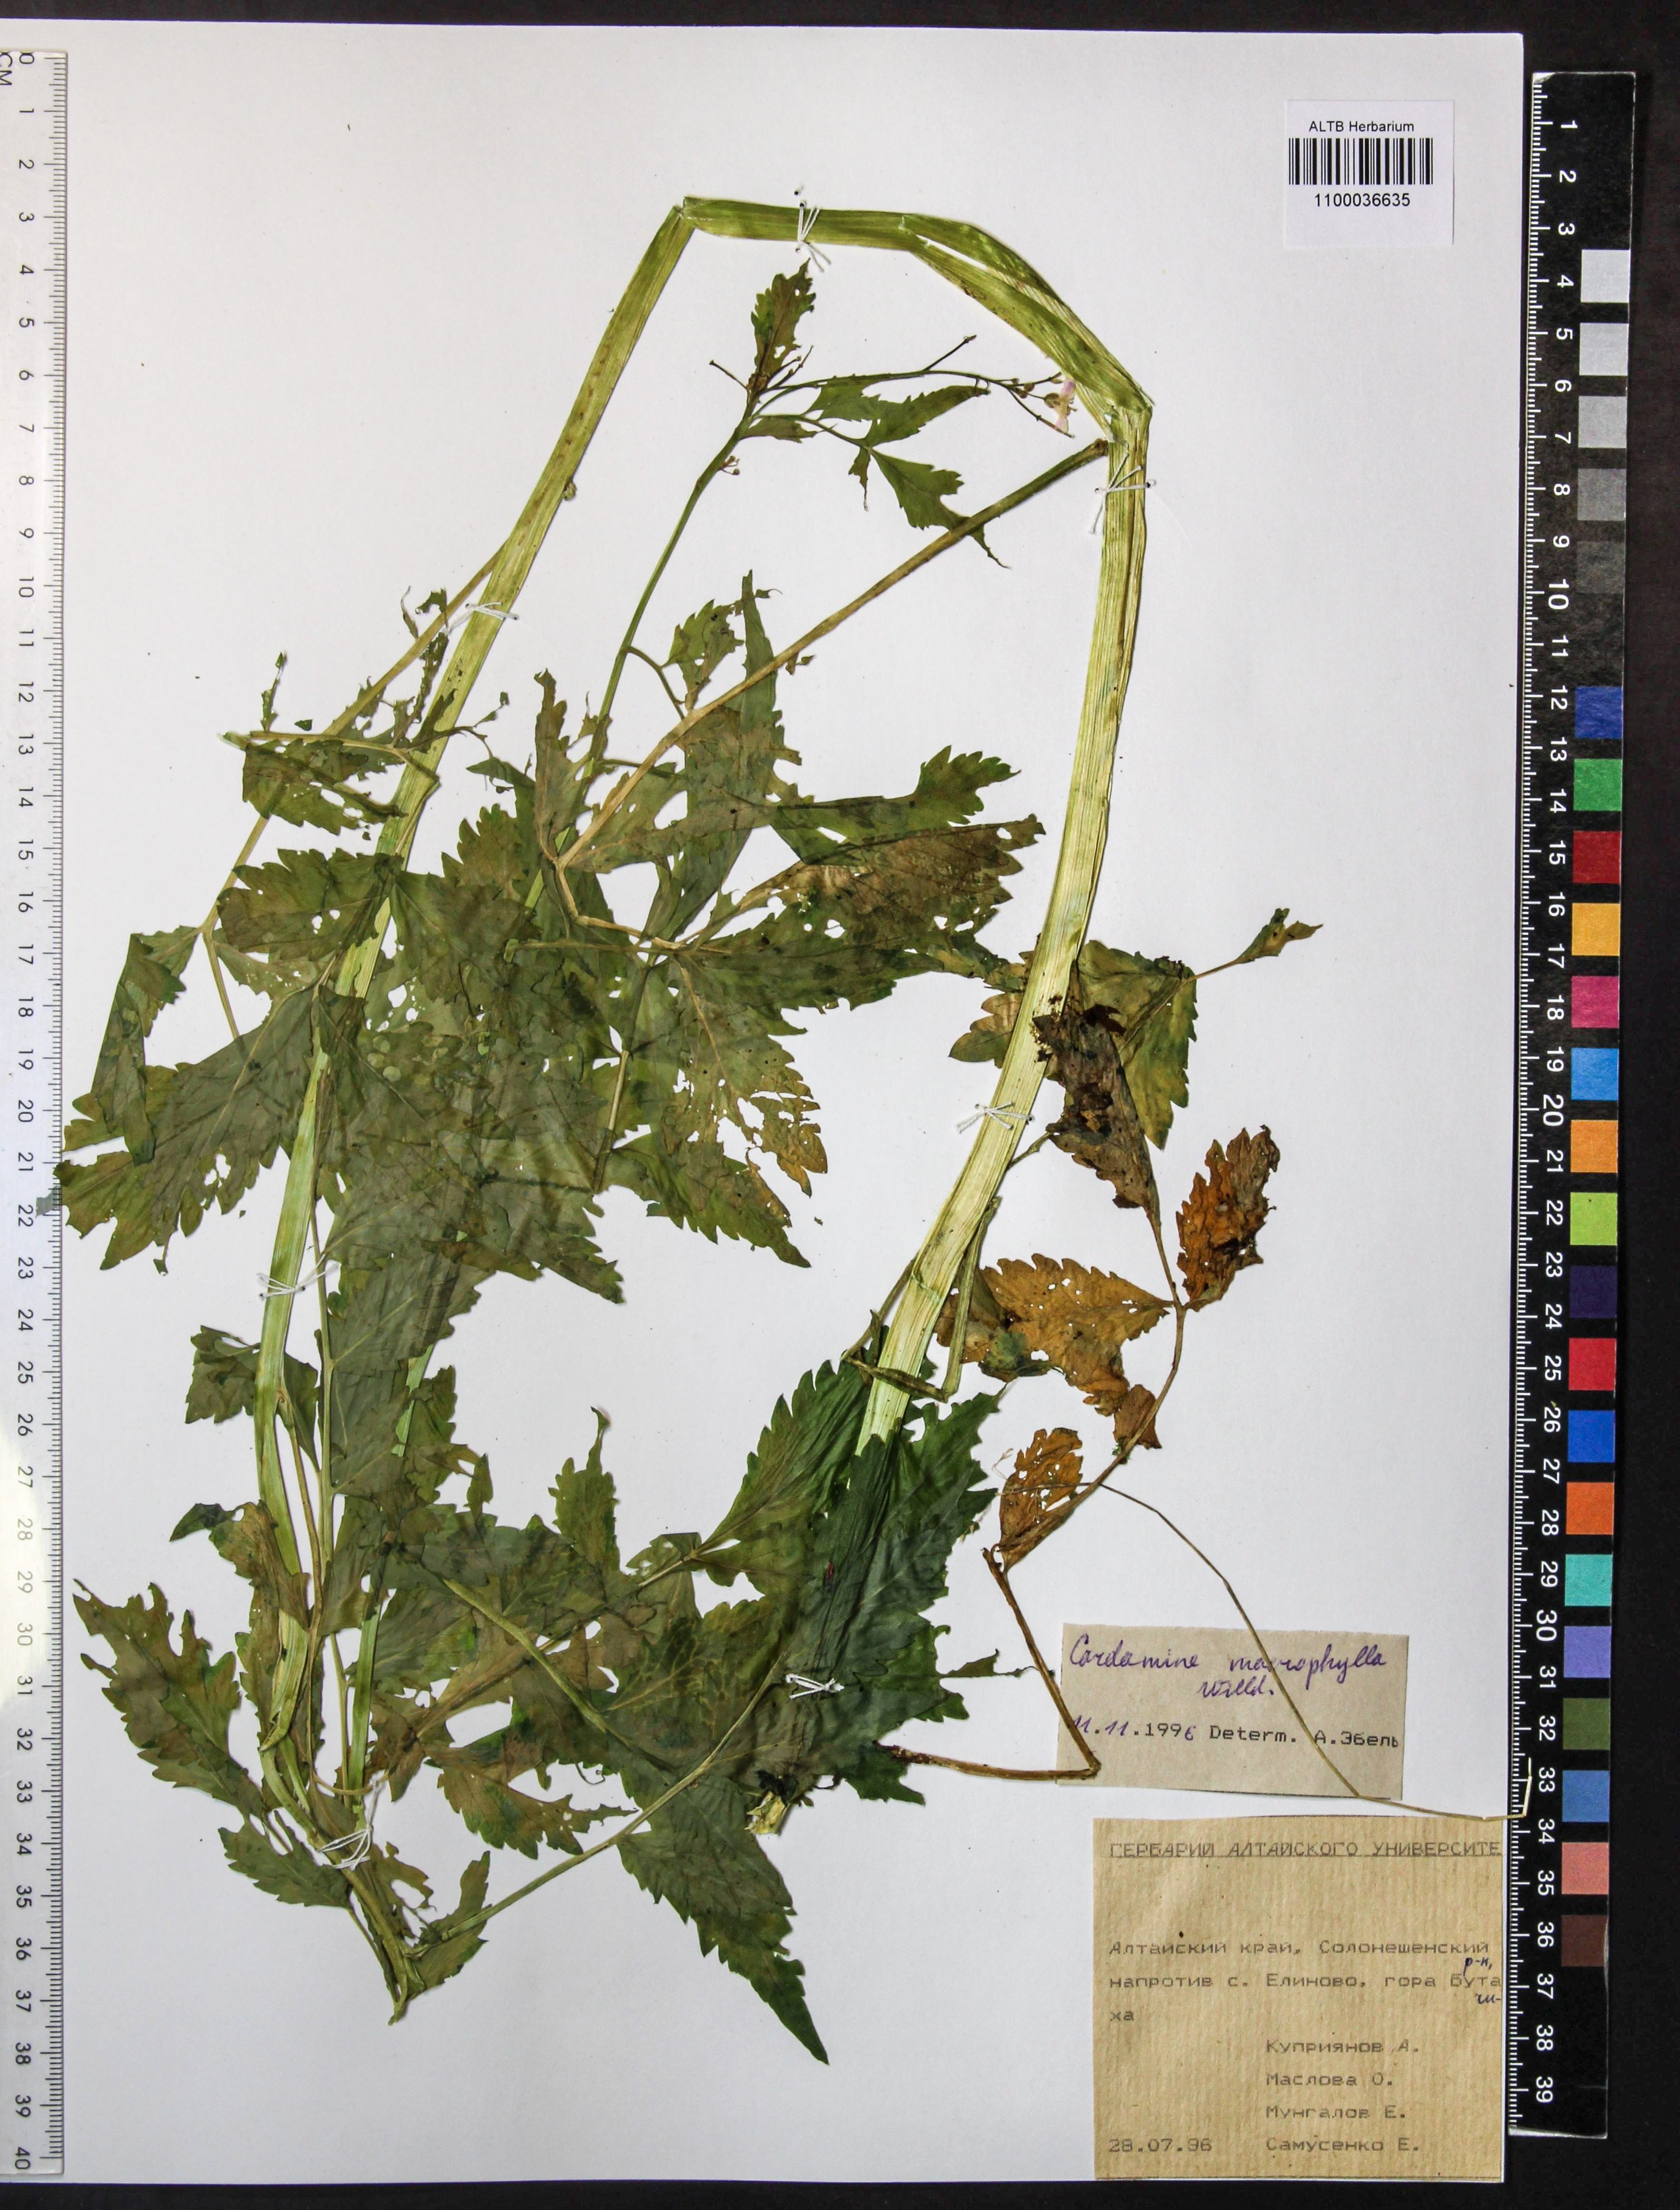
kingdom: Plantae
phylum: Tracheophyta
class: Magnoliopsida
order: Brassicales
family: Brassicaceae
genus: Cardamine
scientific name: Cardamine macrophylla
